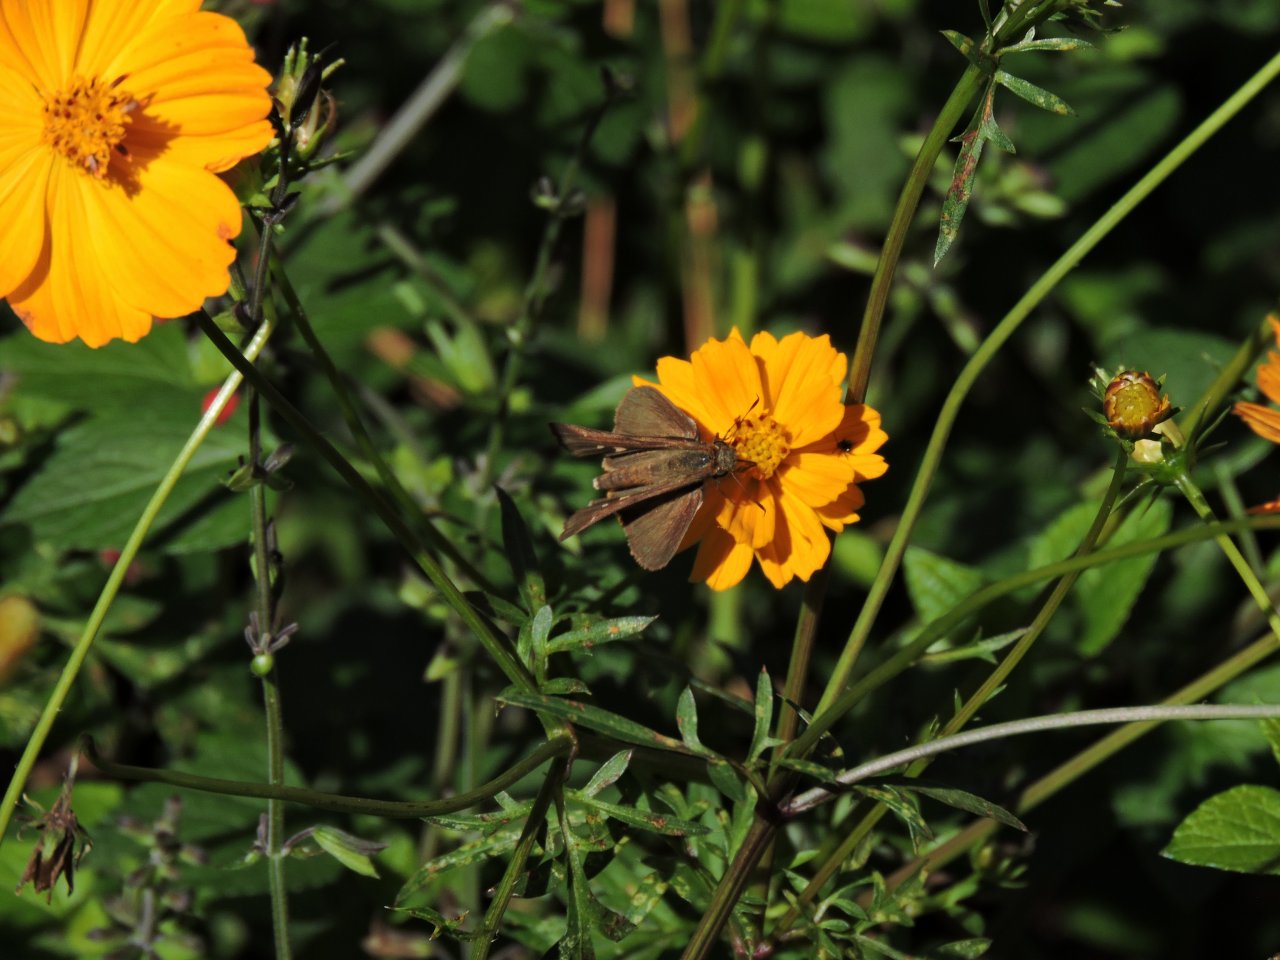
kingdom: Animalia
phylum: Arthropoda
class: Insecta
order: Lepidoptera
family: Hesperiidae
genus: Panoquina
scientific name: Panoquina ocola
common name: Ocola Skipper
